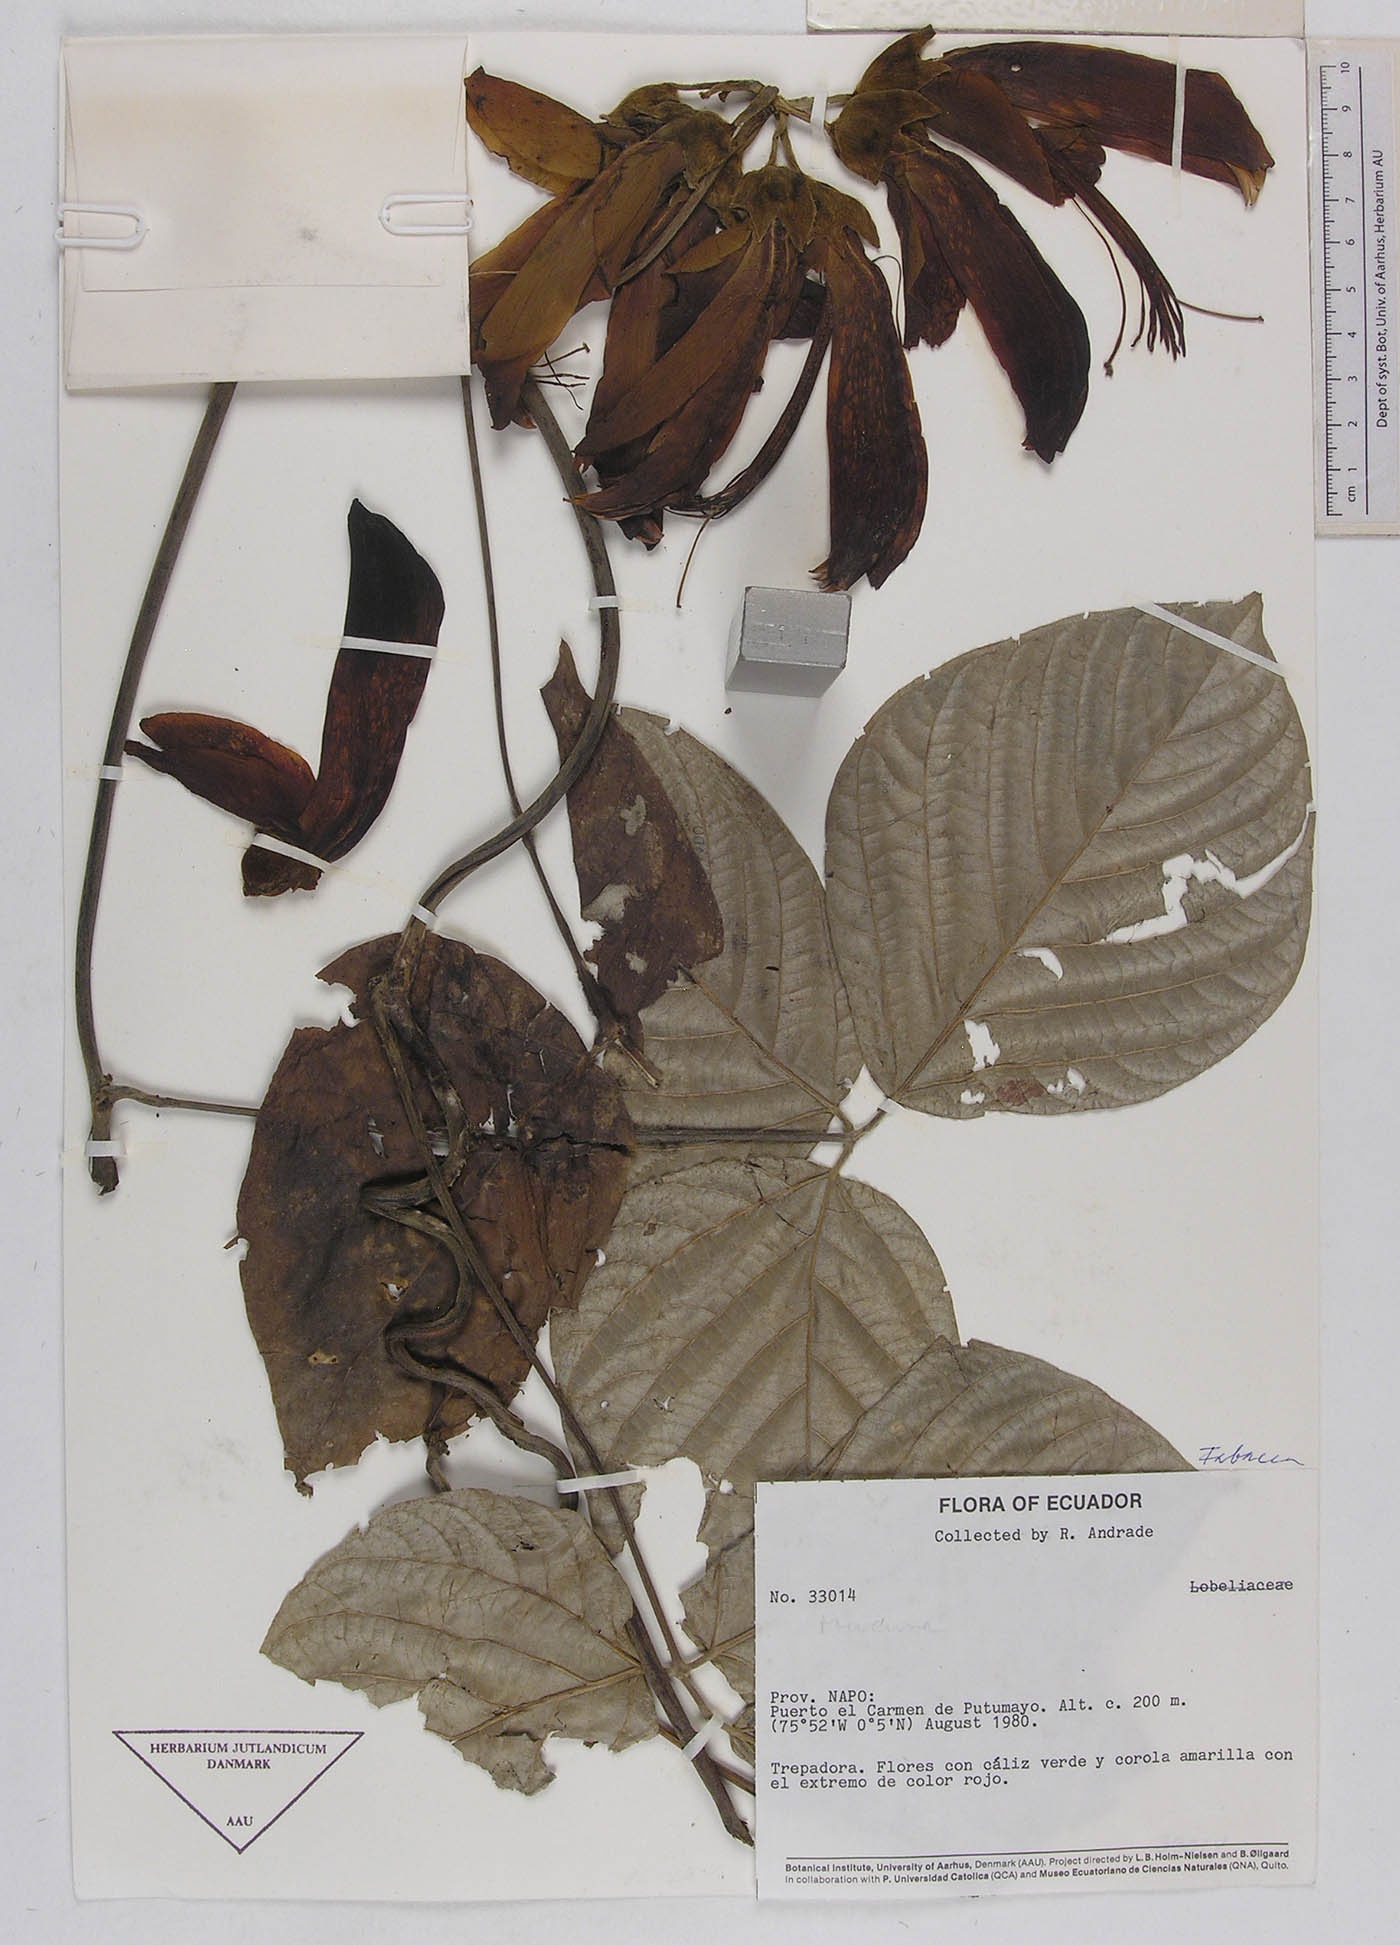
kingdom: Plantae
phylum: Tracheophyta
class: Magnoliopsida
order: Fabales
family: Fabaceae
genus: Mucuna
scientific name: Mucuna elliptica
